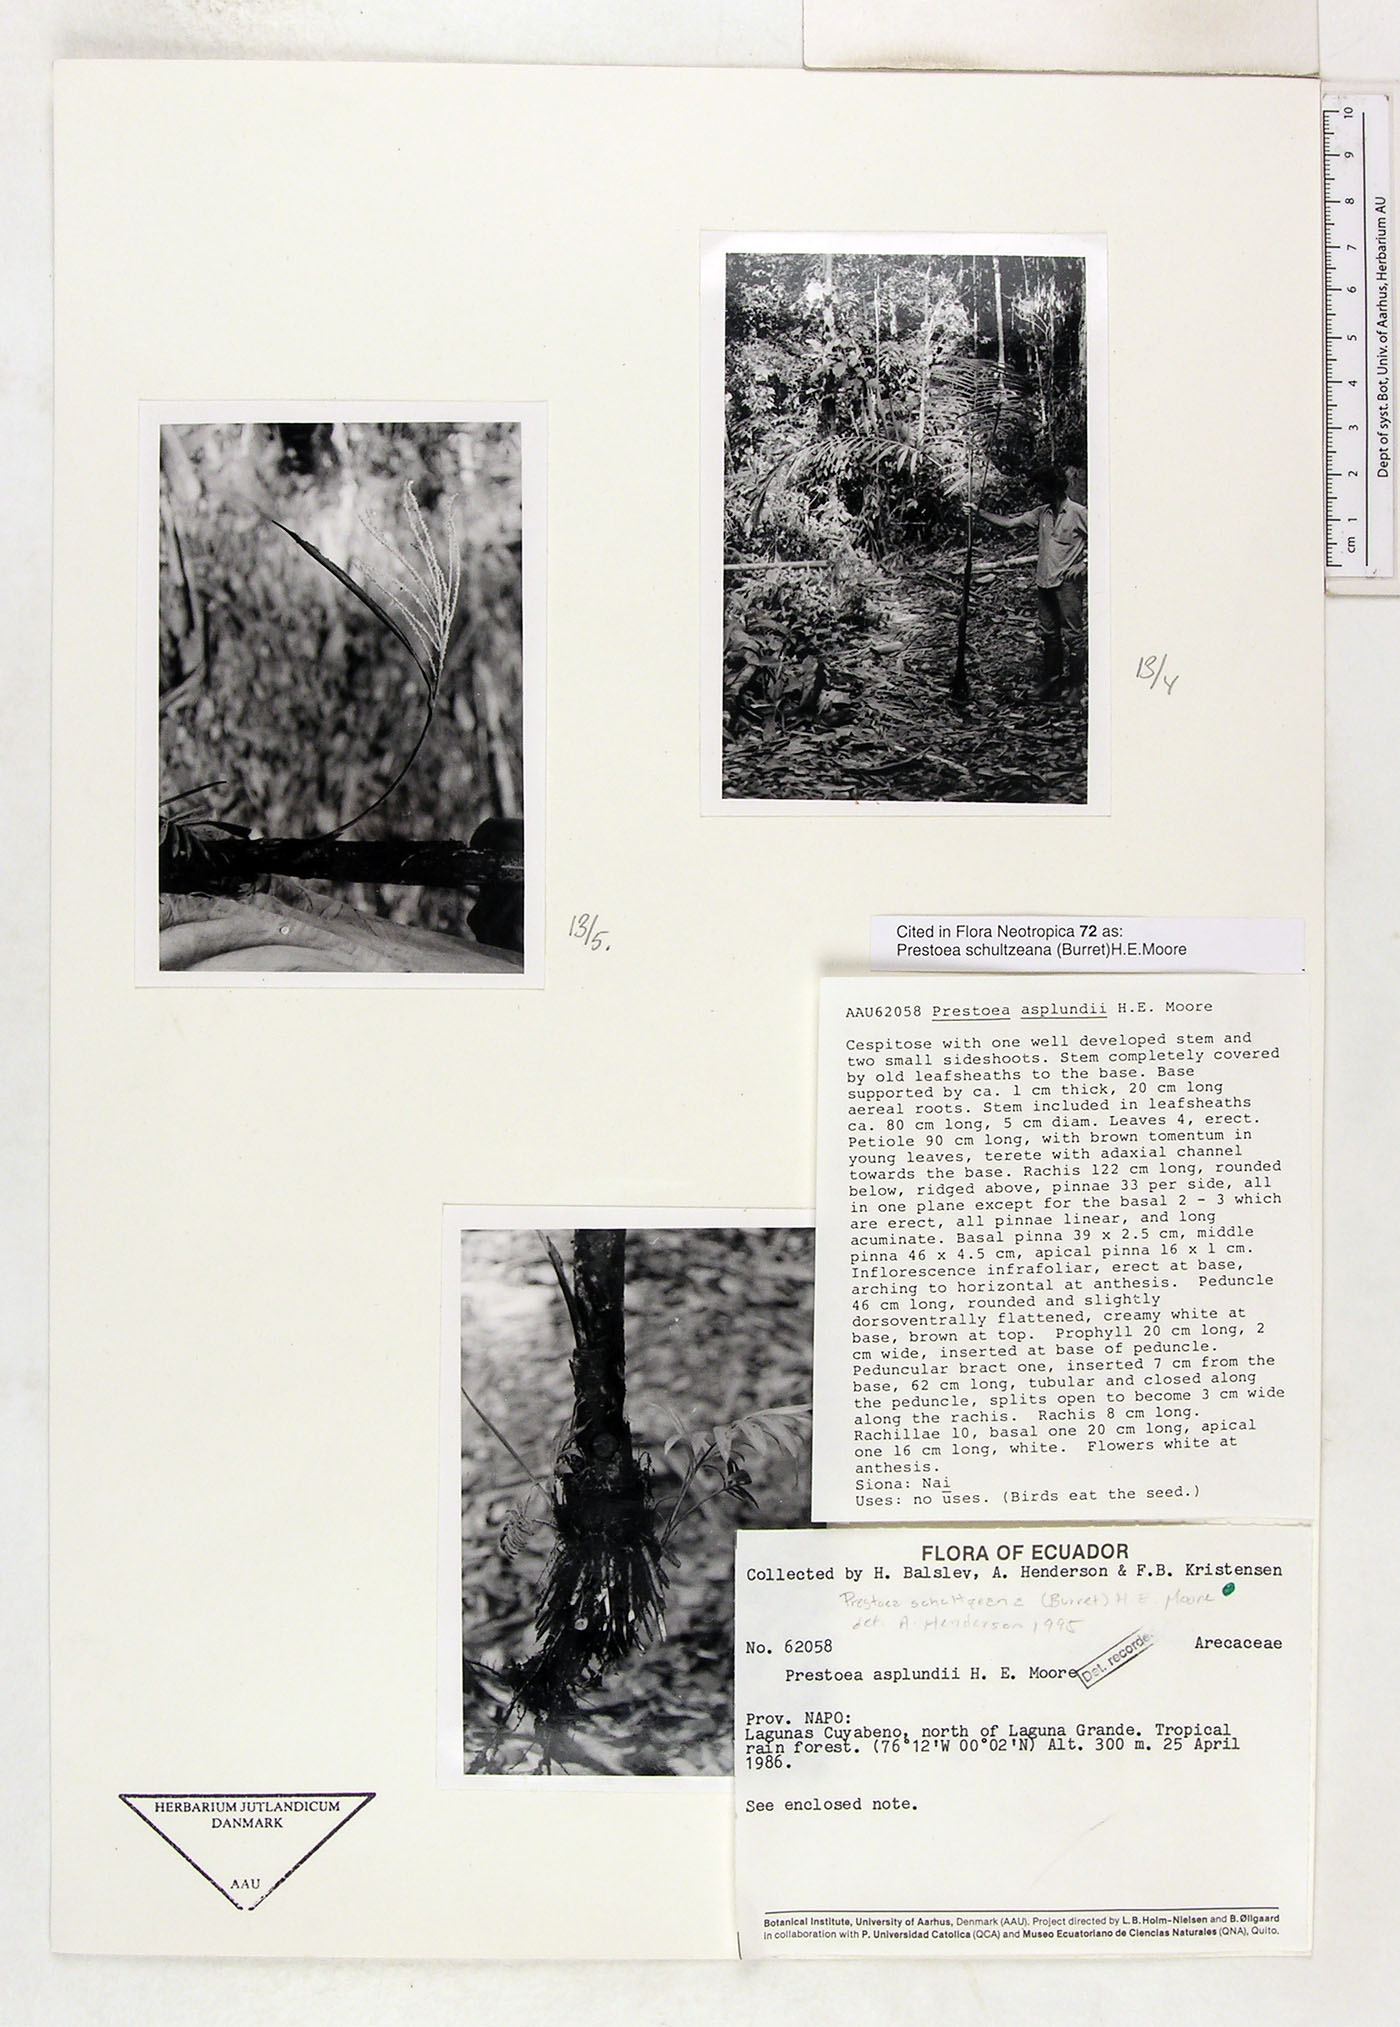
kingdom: Plantae
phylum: Tracheophyta
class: Liliopsida
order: Arecales
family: Arecaceae
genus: Prestoea
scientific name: Prestoea schultzeana
